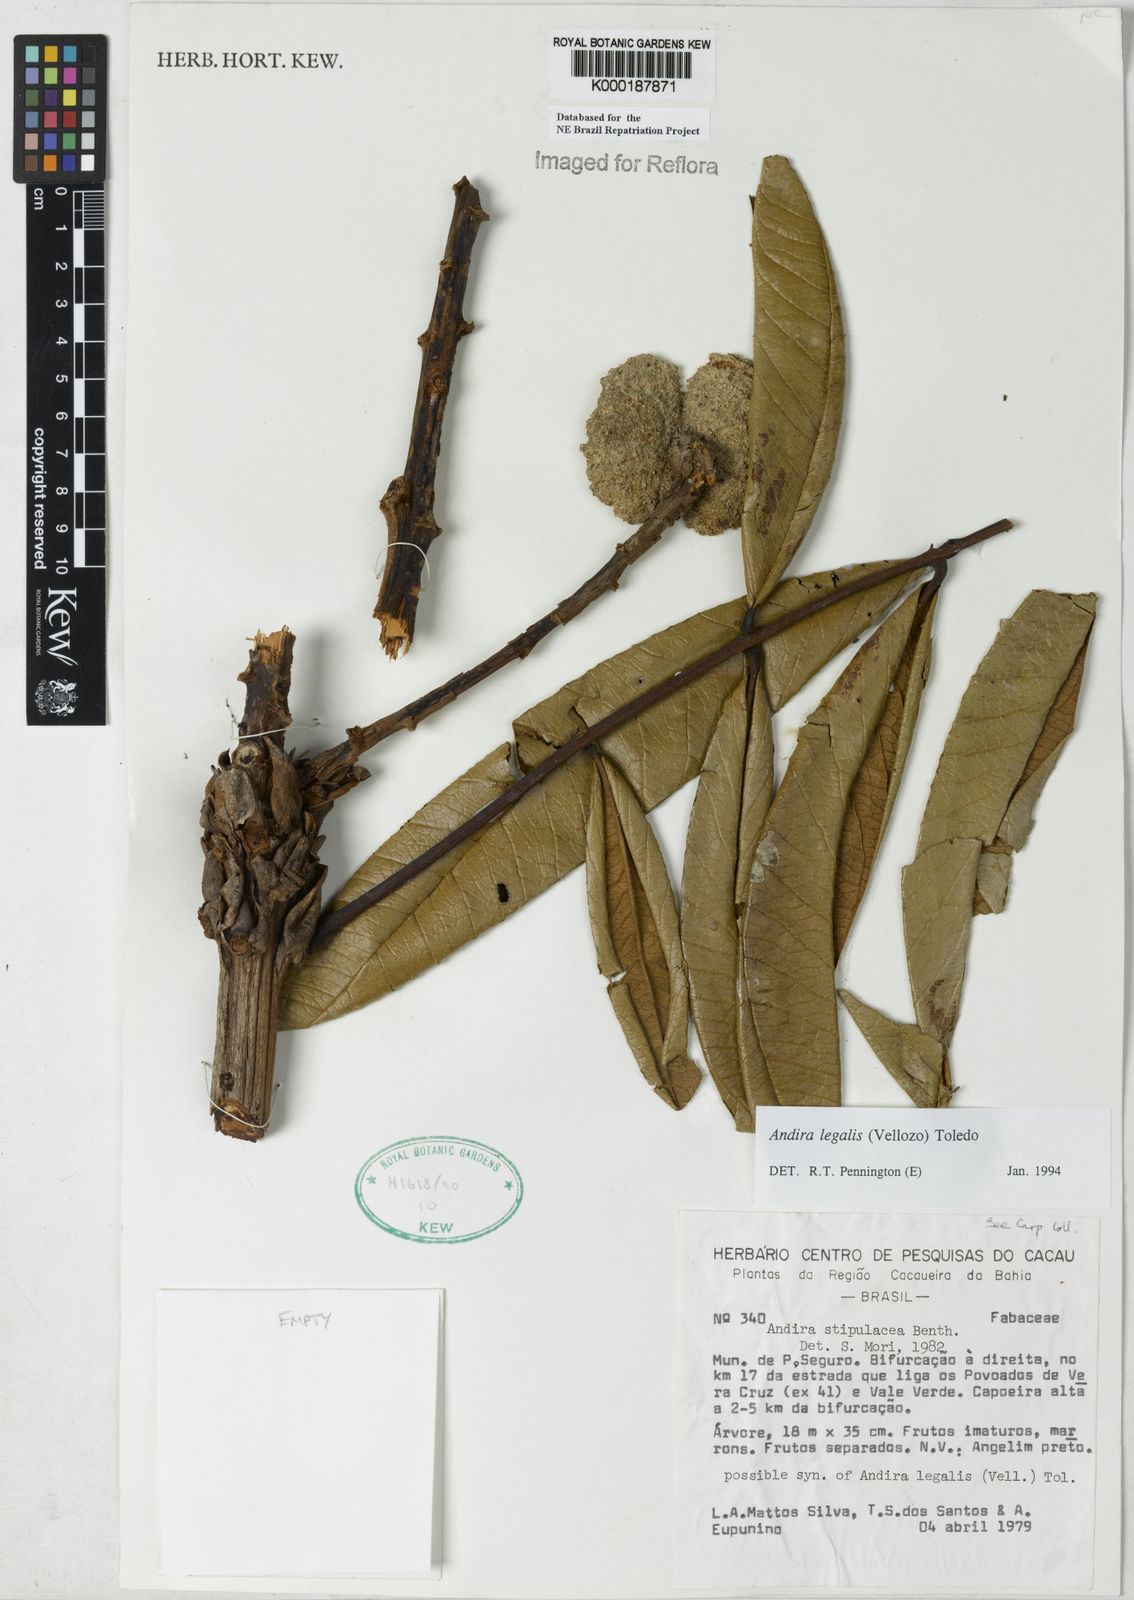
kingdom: Plantae
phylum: Tracheophyta
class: Magnoliopsida
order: Fabales
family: Fabaceae
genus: Andira
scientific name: Andira legalis
